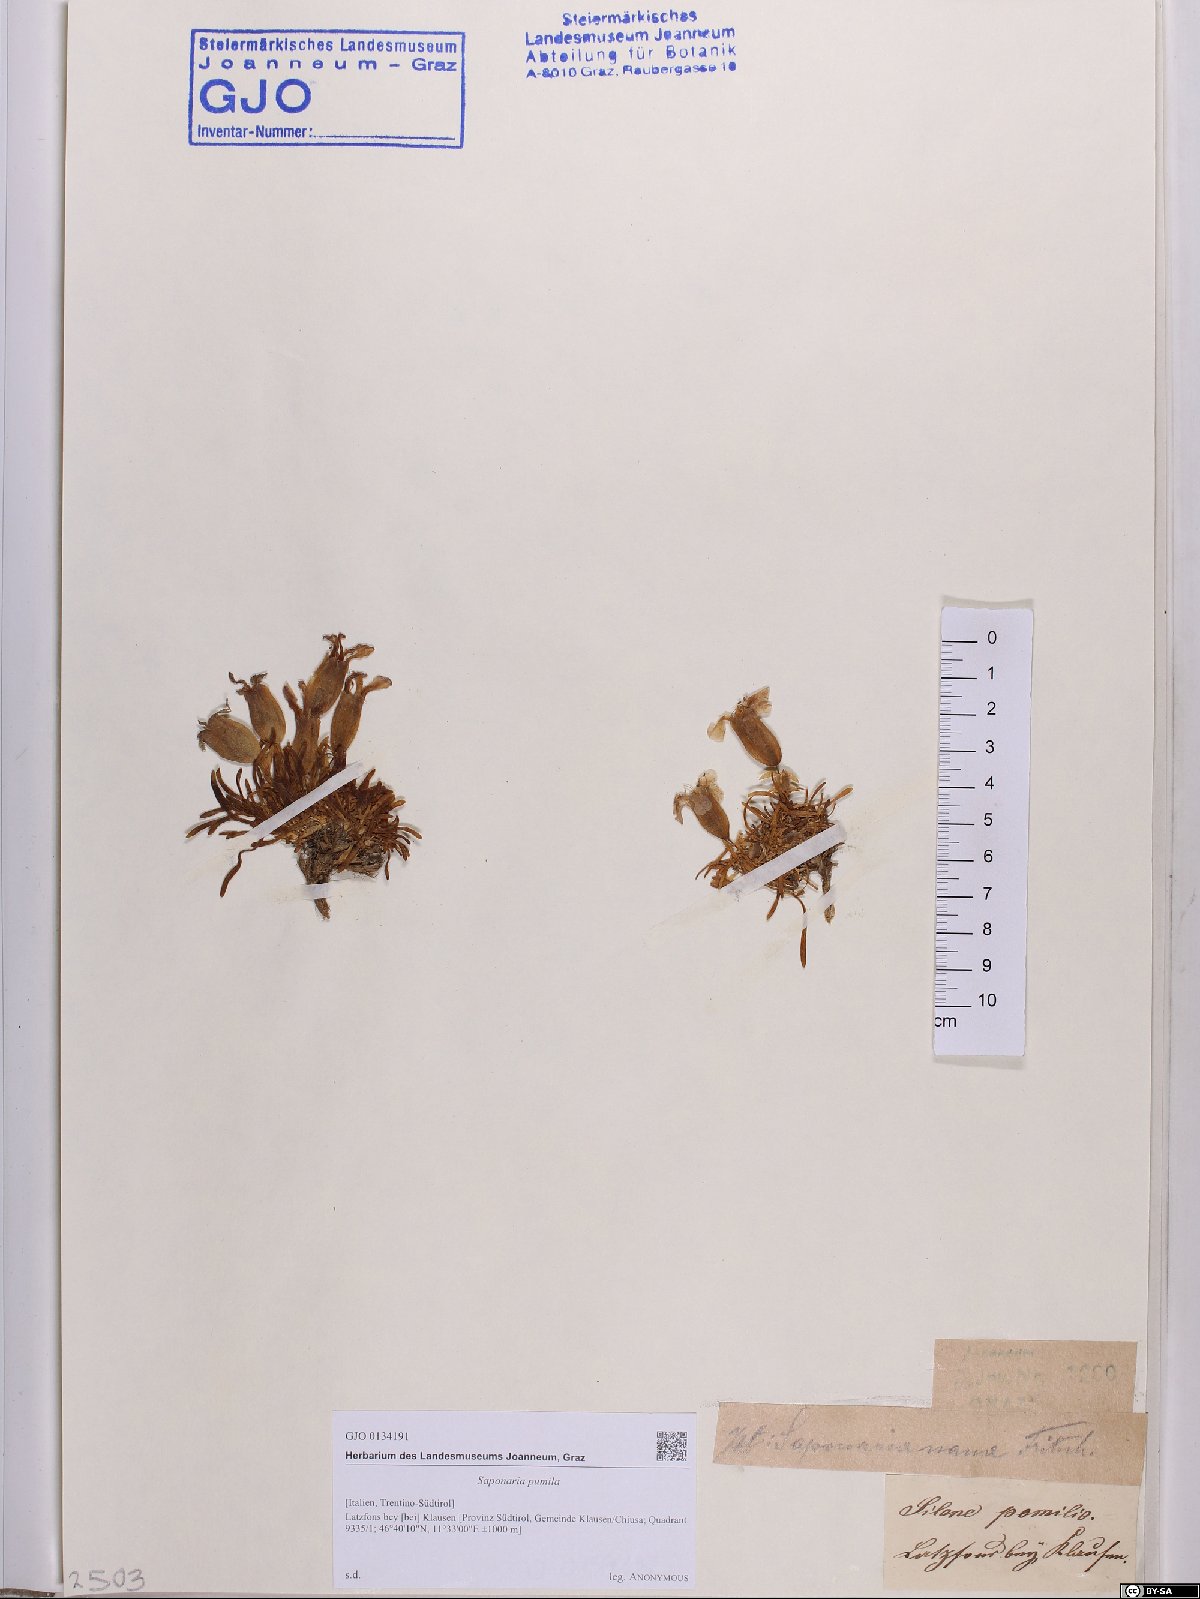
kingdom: Plantae
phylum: Tracheophyta
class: Magnoliopsida
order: Caryophyllales
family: Caryophyllaceae
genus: Saponaria
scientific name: Saponaria pumila
